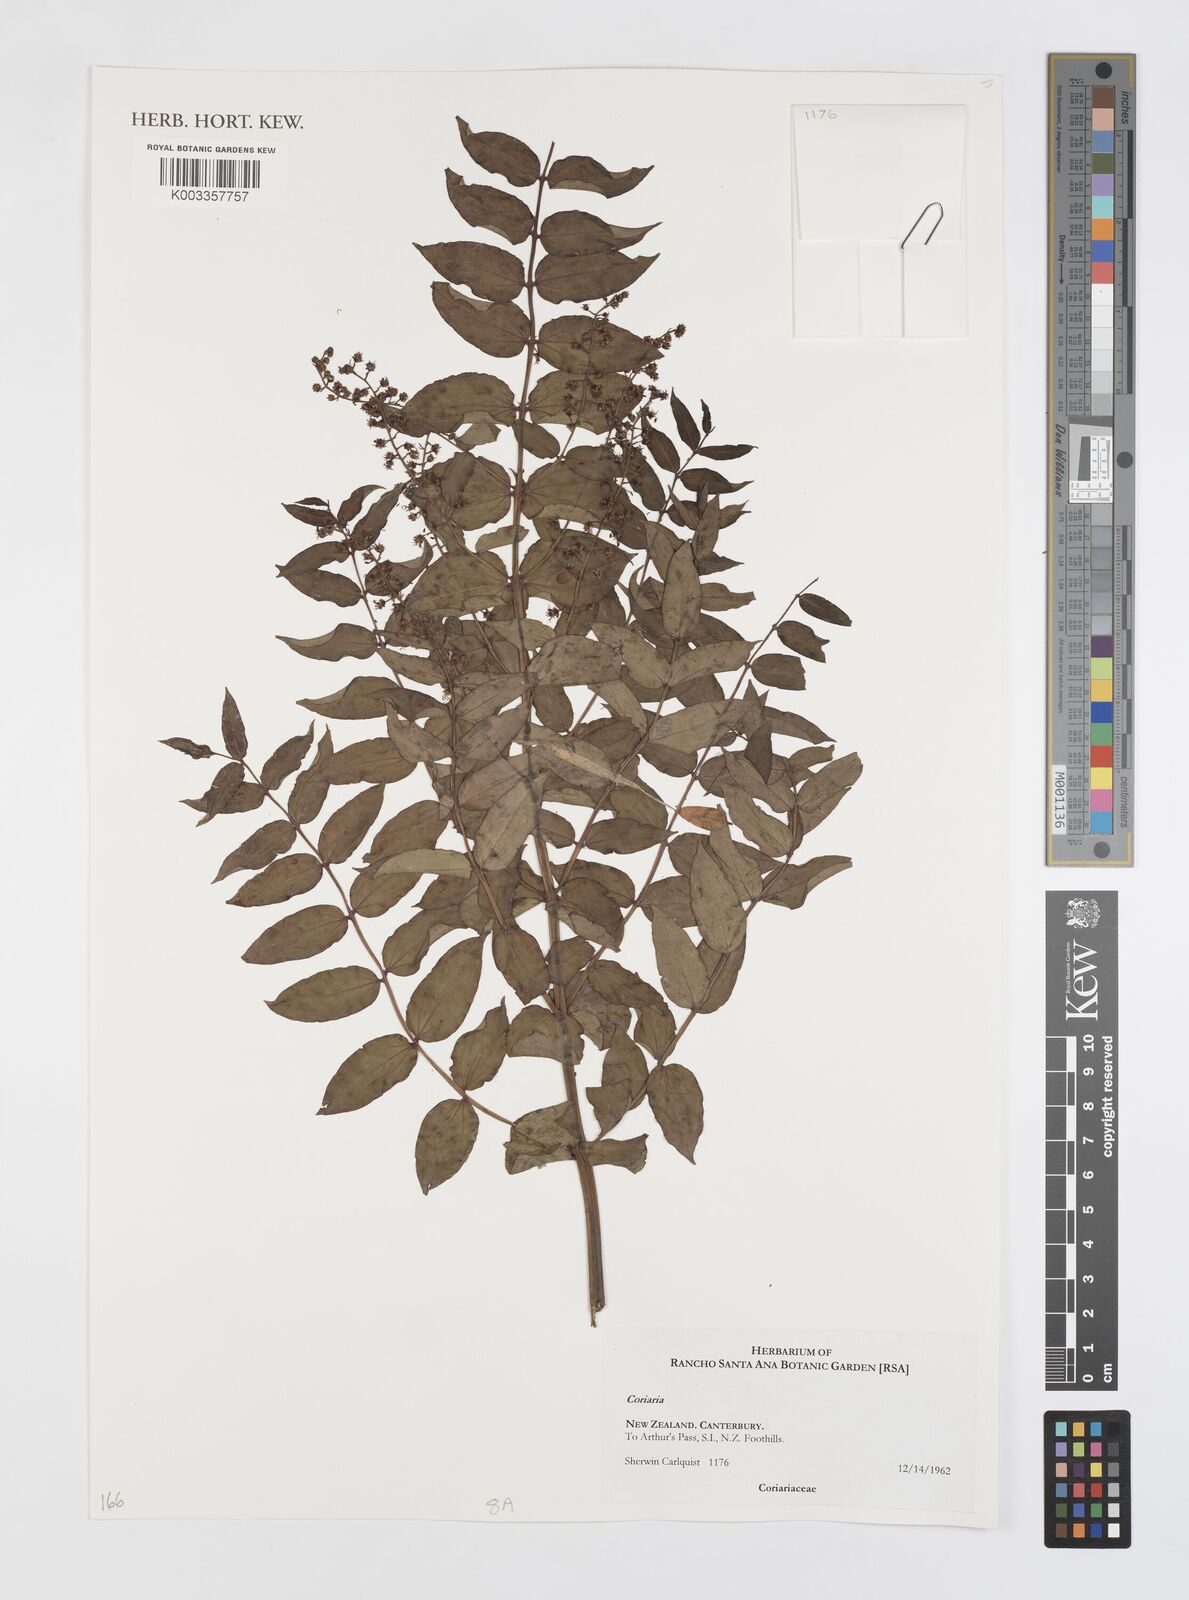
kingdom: Plantae
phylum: Tracheophyta
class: Magnoliopsida
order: Cucurbitales
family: Coriariaceae
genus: Coriaria
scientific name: Coriaria
